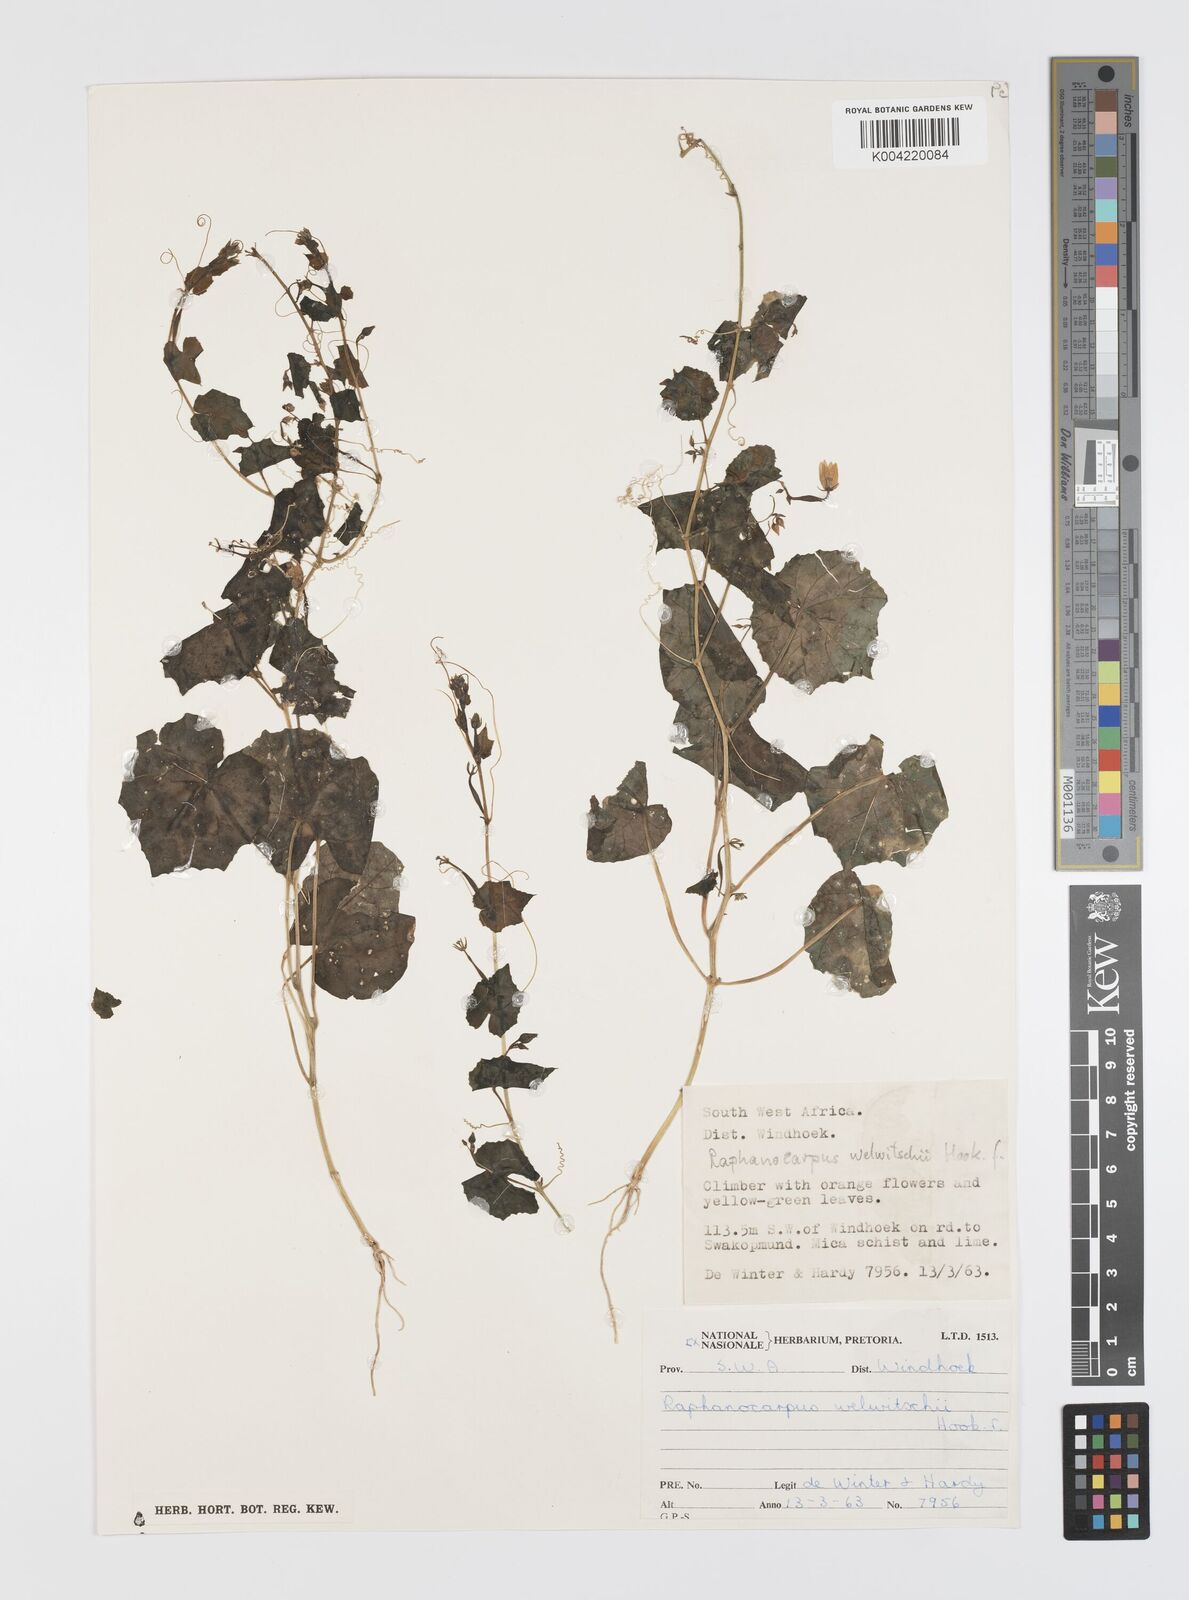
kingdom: Plantae
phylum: Tracheophyta
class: Magnoliopsida
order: Cucurbitales
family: Cucurbitaceae
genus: Momordica
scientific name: Momordica
